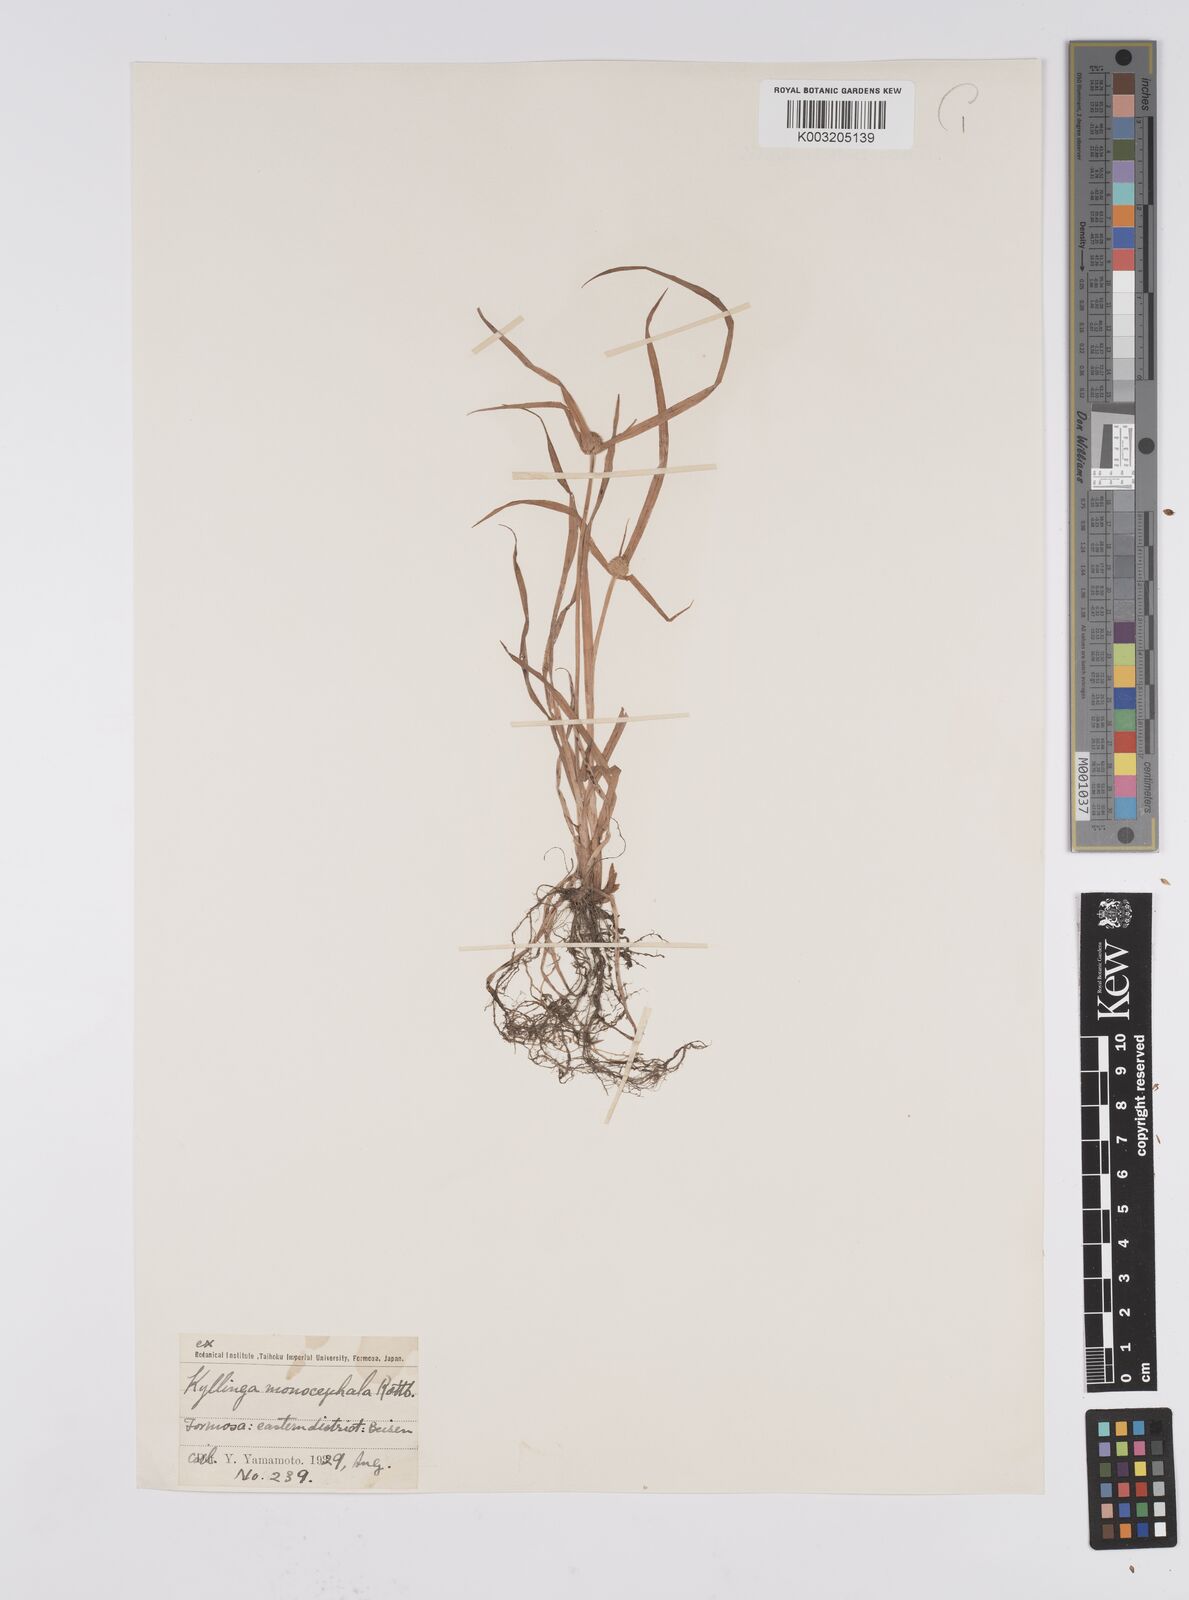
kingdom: Plantae
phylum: Tracheophyta
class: Liliopsida
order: Poales
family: Cyperaceae
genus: Cyperus
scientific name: Cyperus nemoralis
